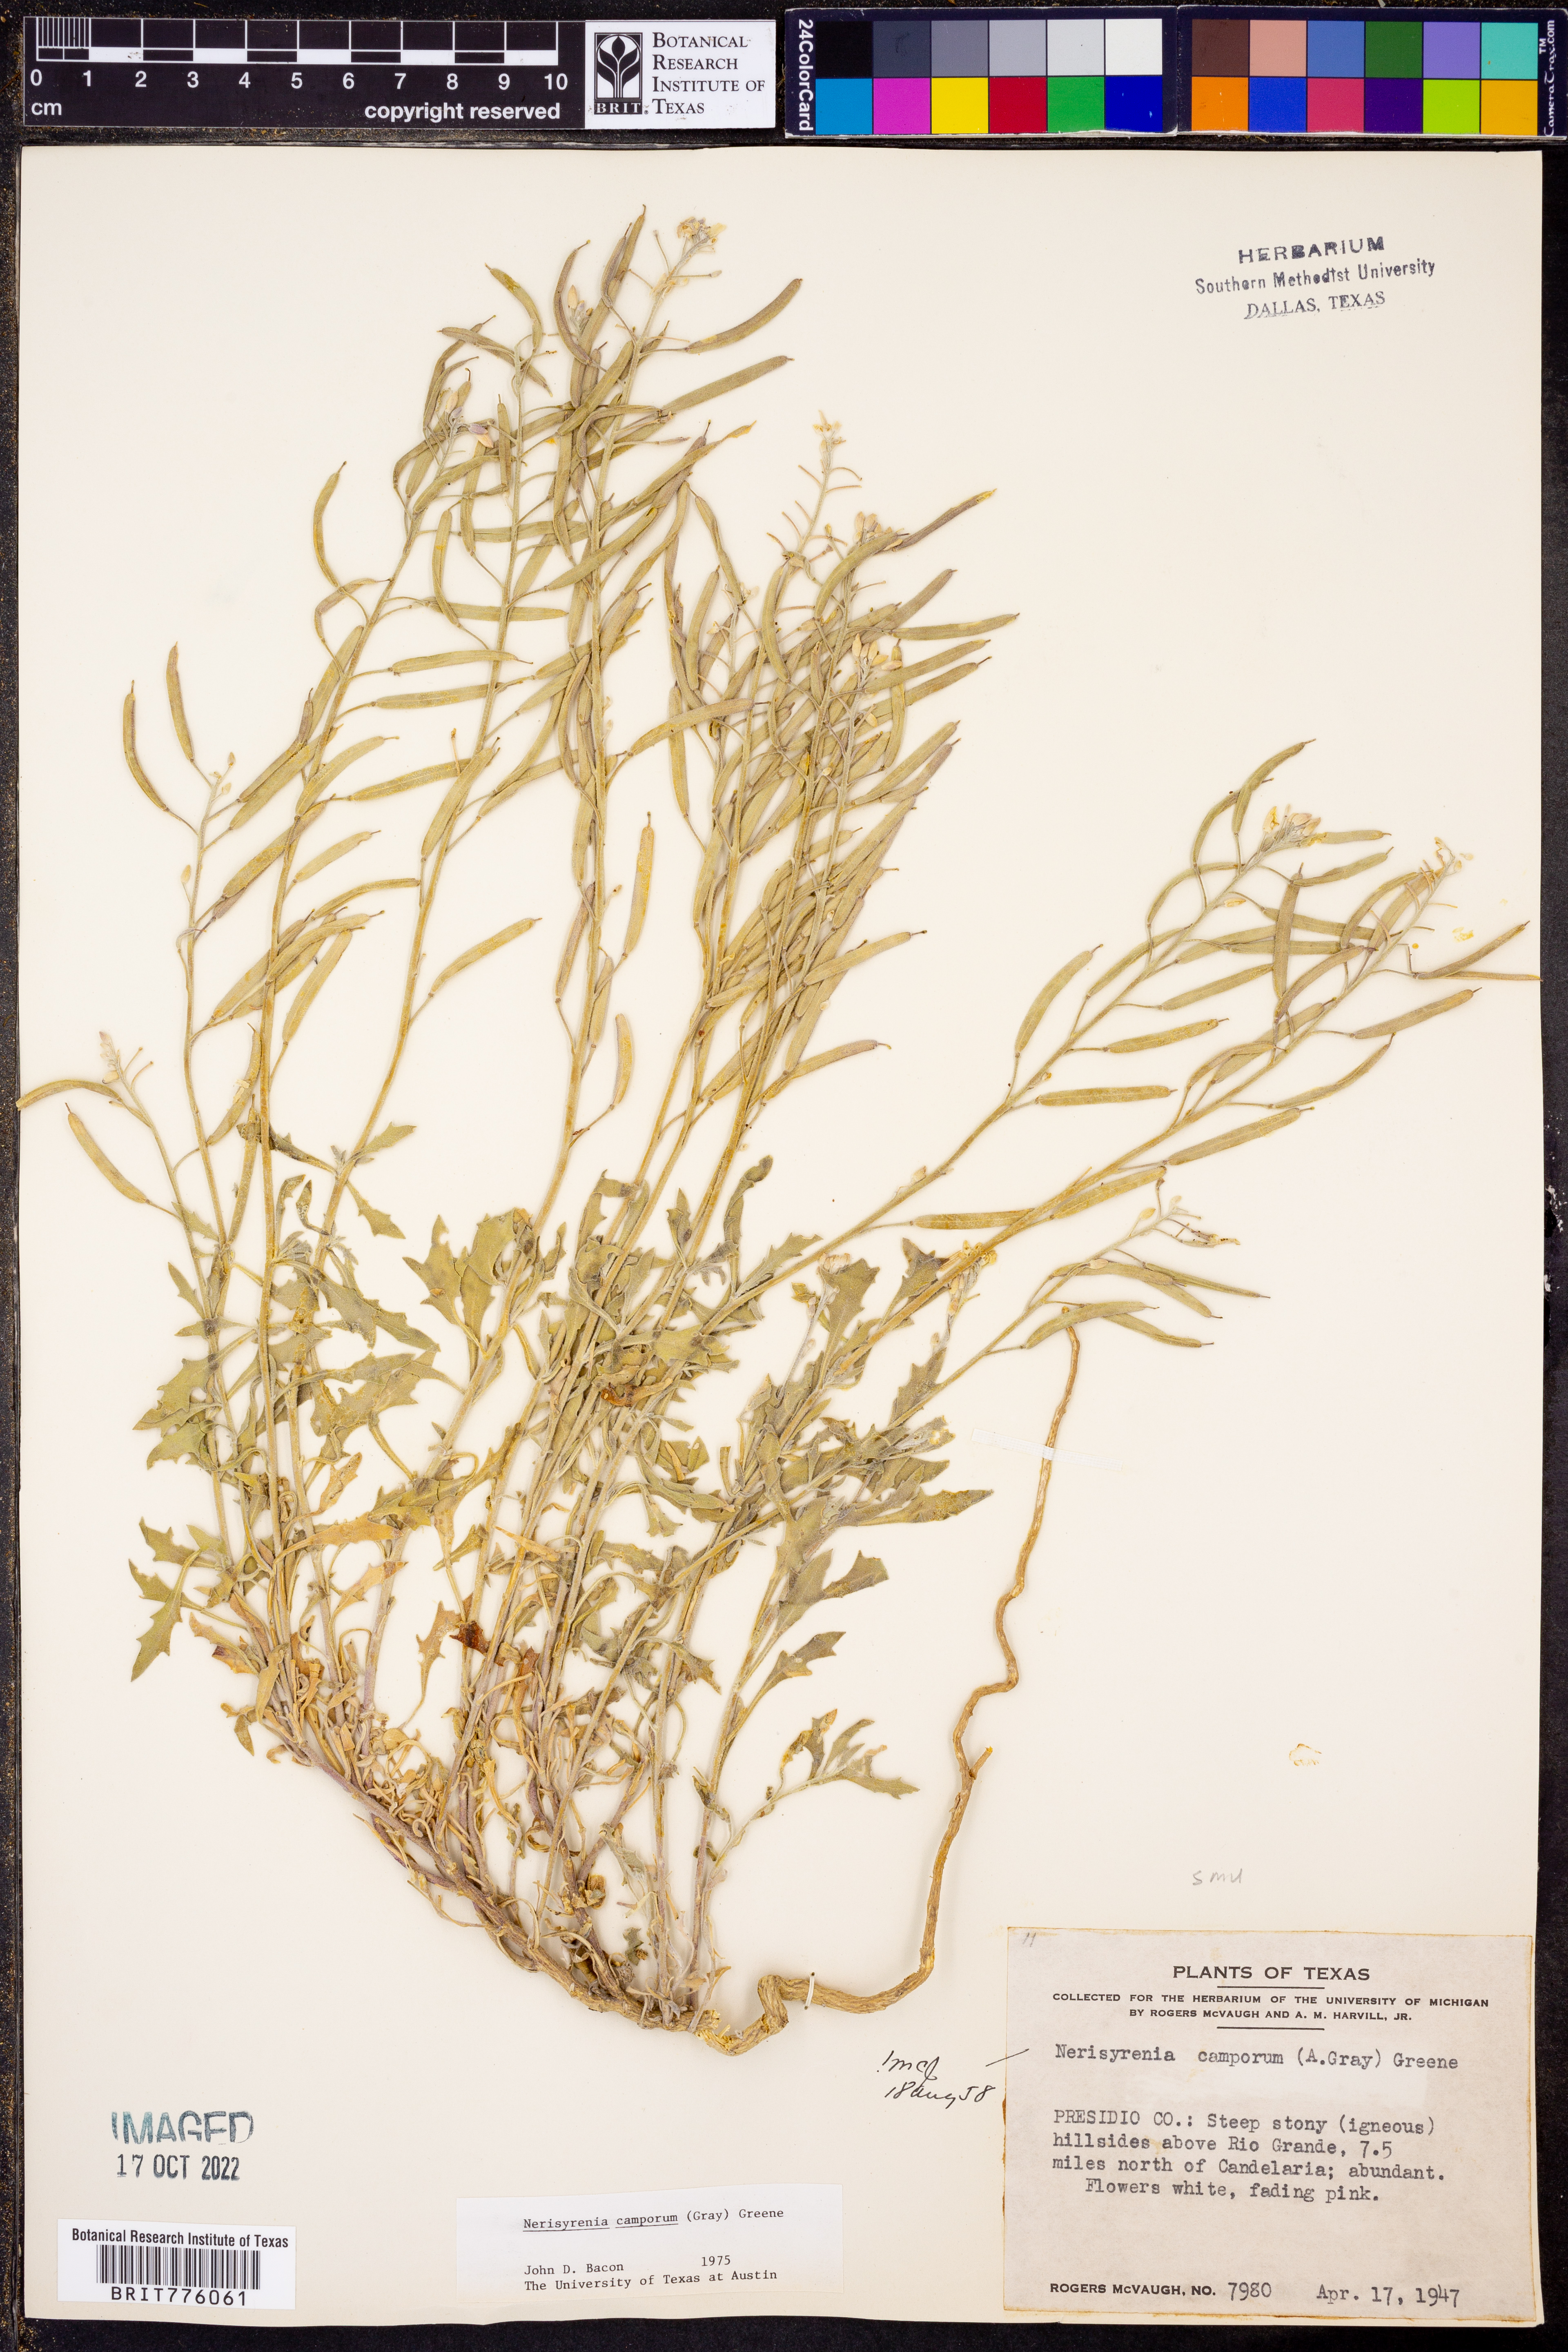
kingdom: Plantae
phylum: Tracheophyta
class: Magnoliopsida
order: Brassicales
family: Brassicaceae
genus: Nerisyrenia
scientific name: Nerisyrenia camporum
